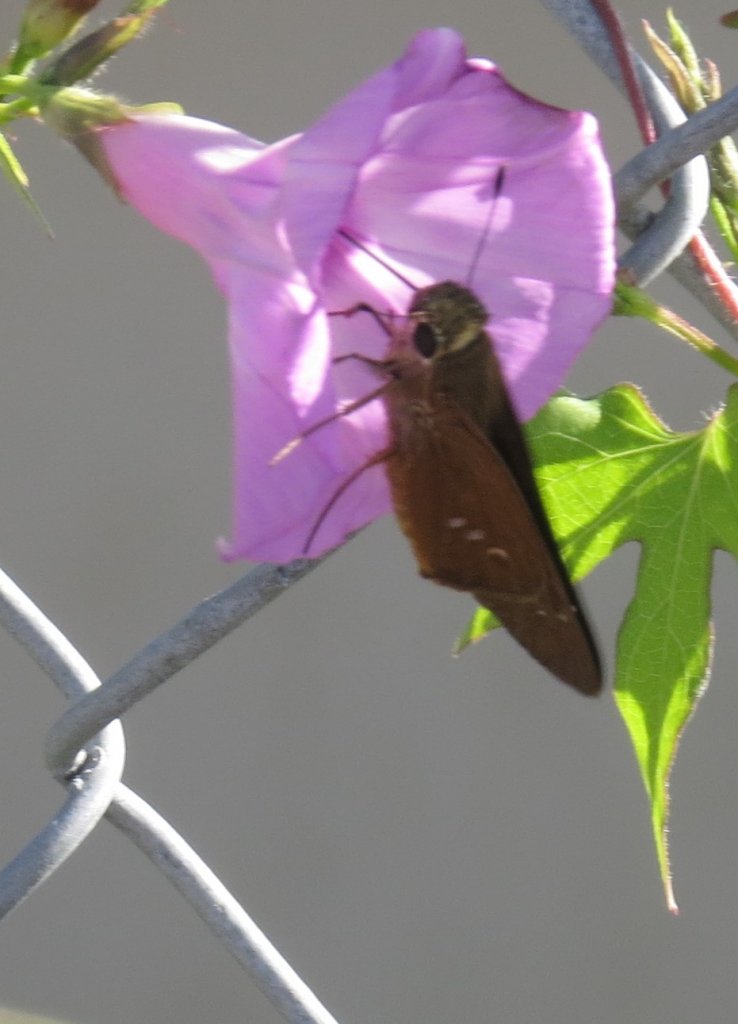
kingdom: Animalia
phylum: Arthropoda
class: Insecta
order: Lepidoptera
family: Hesperiidae
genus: Calpodes
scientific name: Calpodes ethlius
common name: Brazilian Skipper
